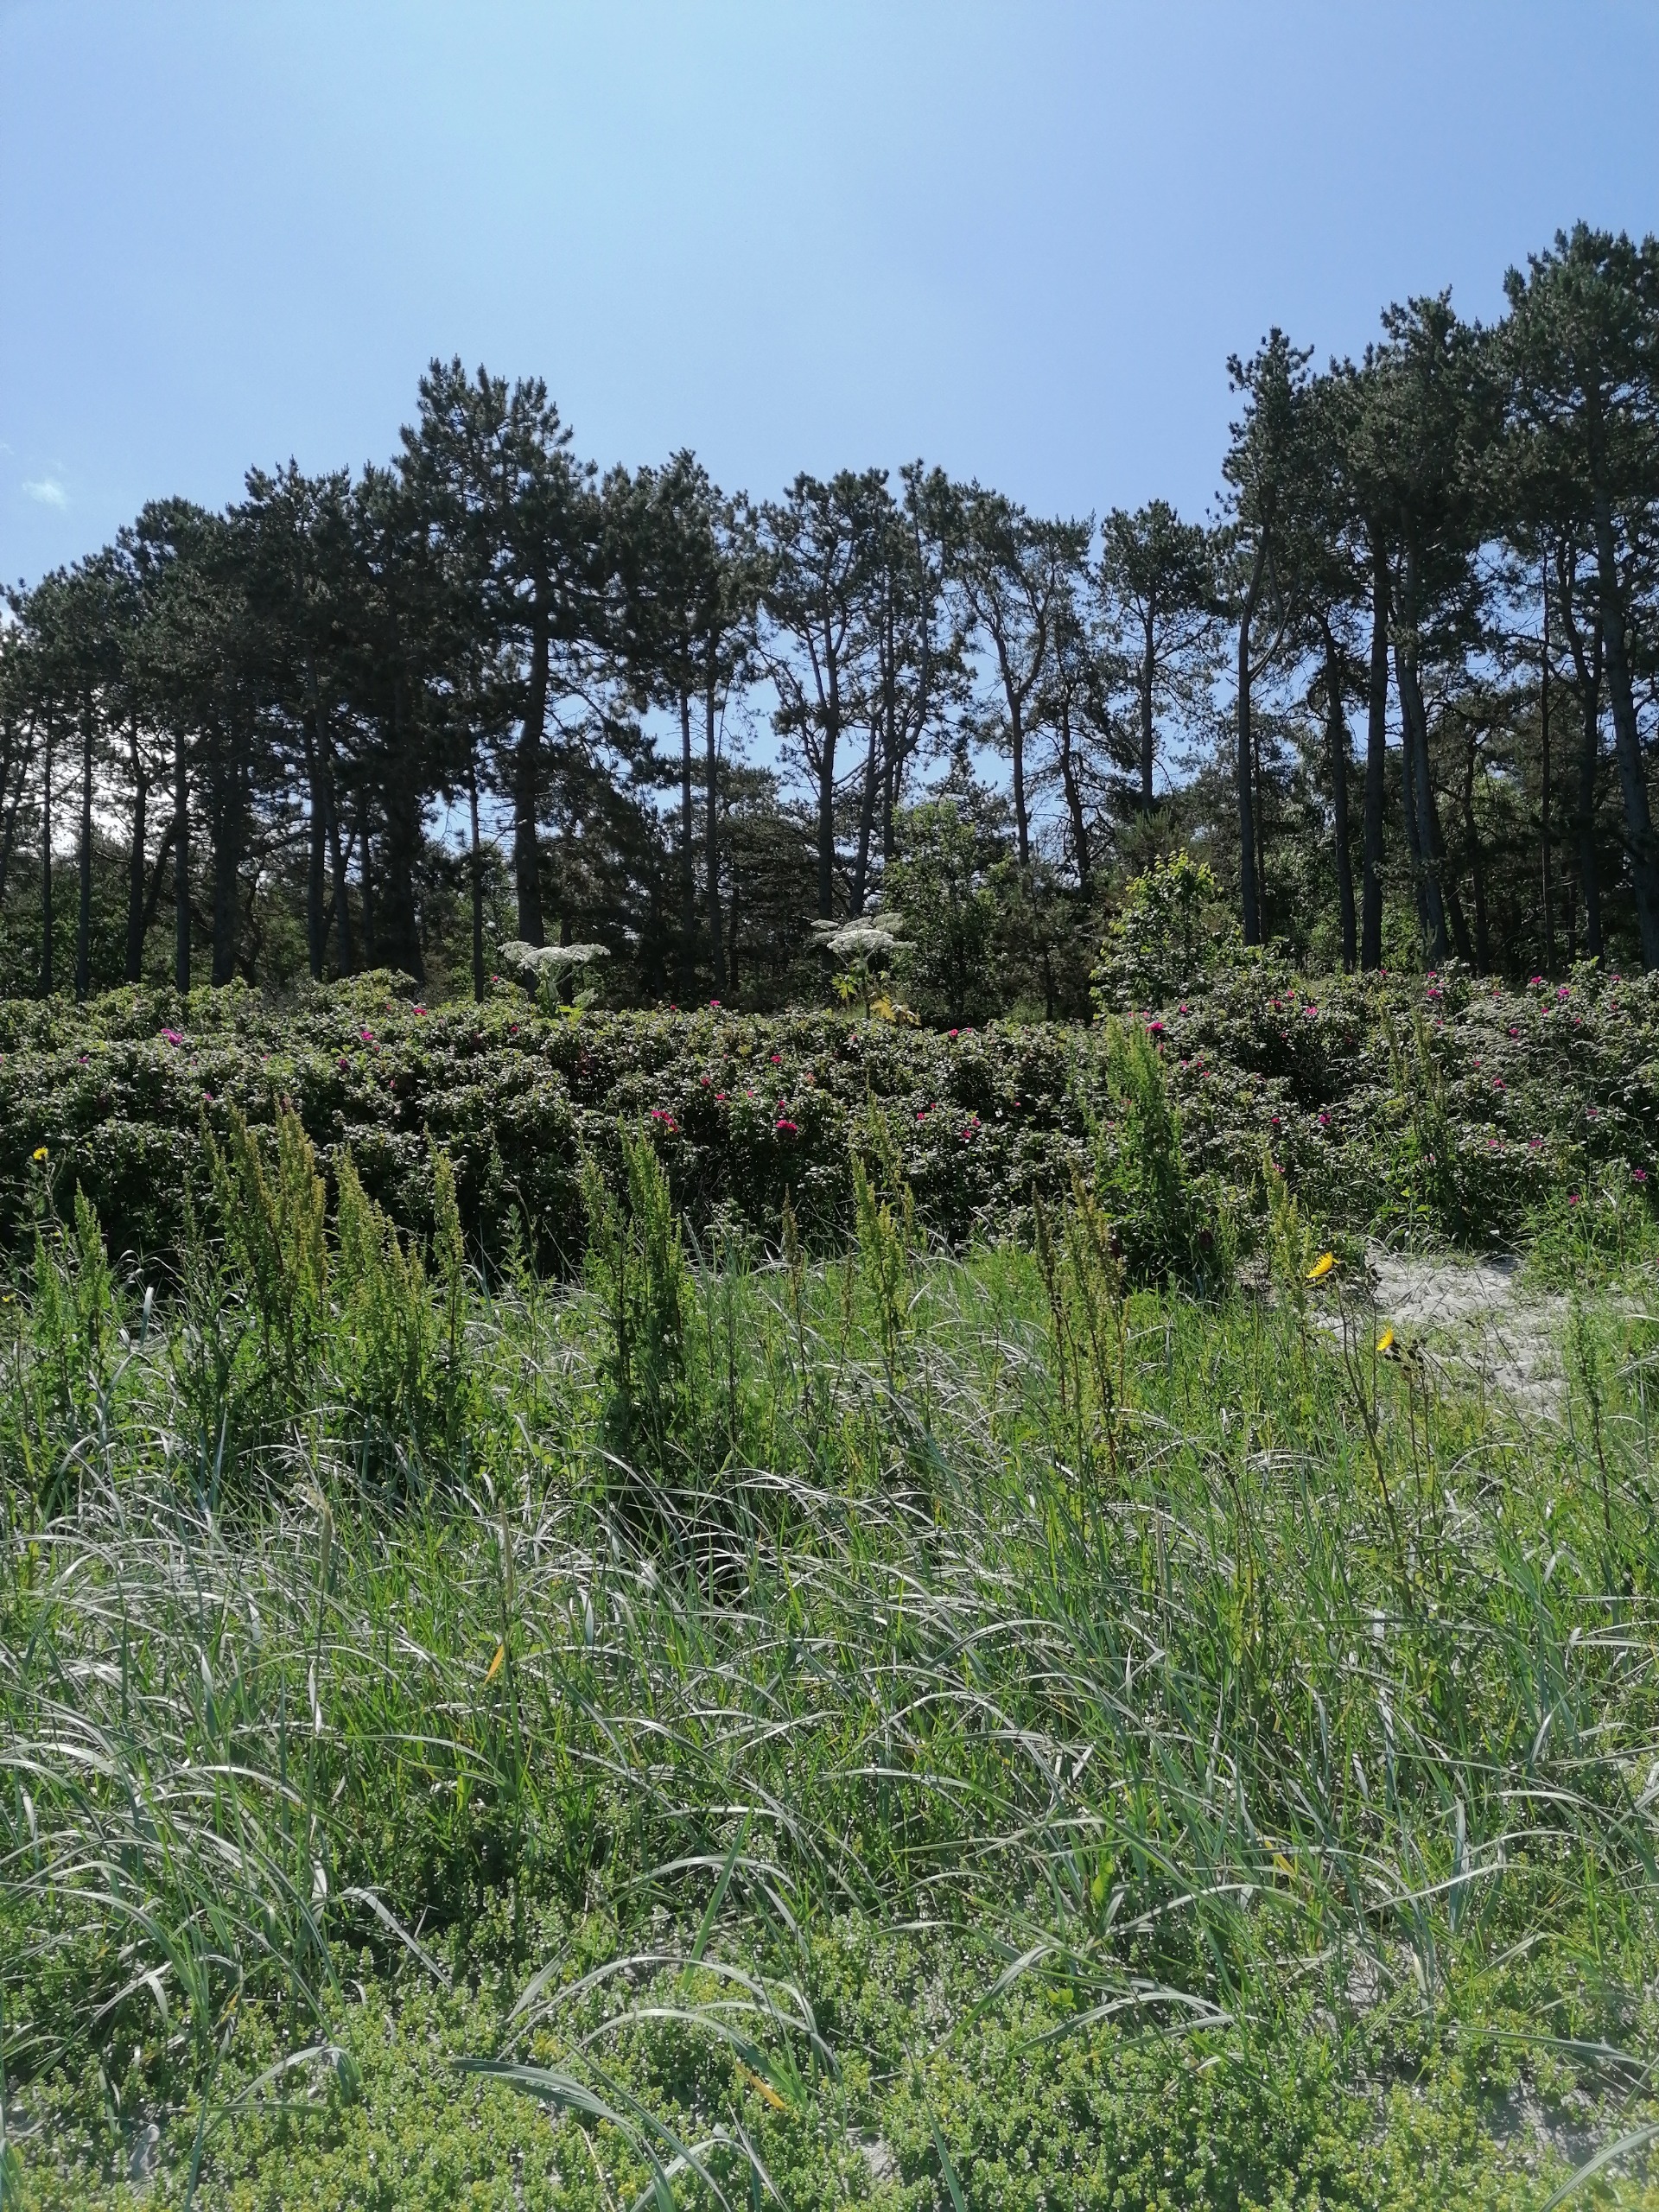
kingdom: Plantae
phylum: Tracheophyta
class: Magnoliopsida
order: Apiales
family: Apiaceae
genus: Heracleum
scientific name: Heracleum mantegazzianum
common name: Kæmpe-bjørneklo
